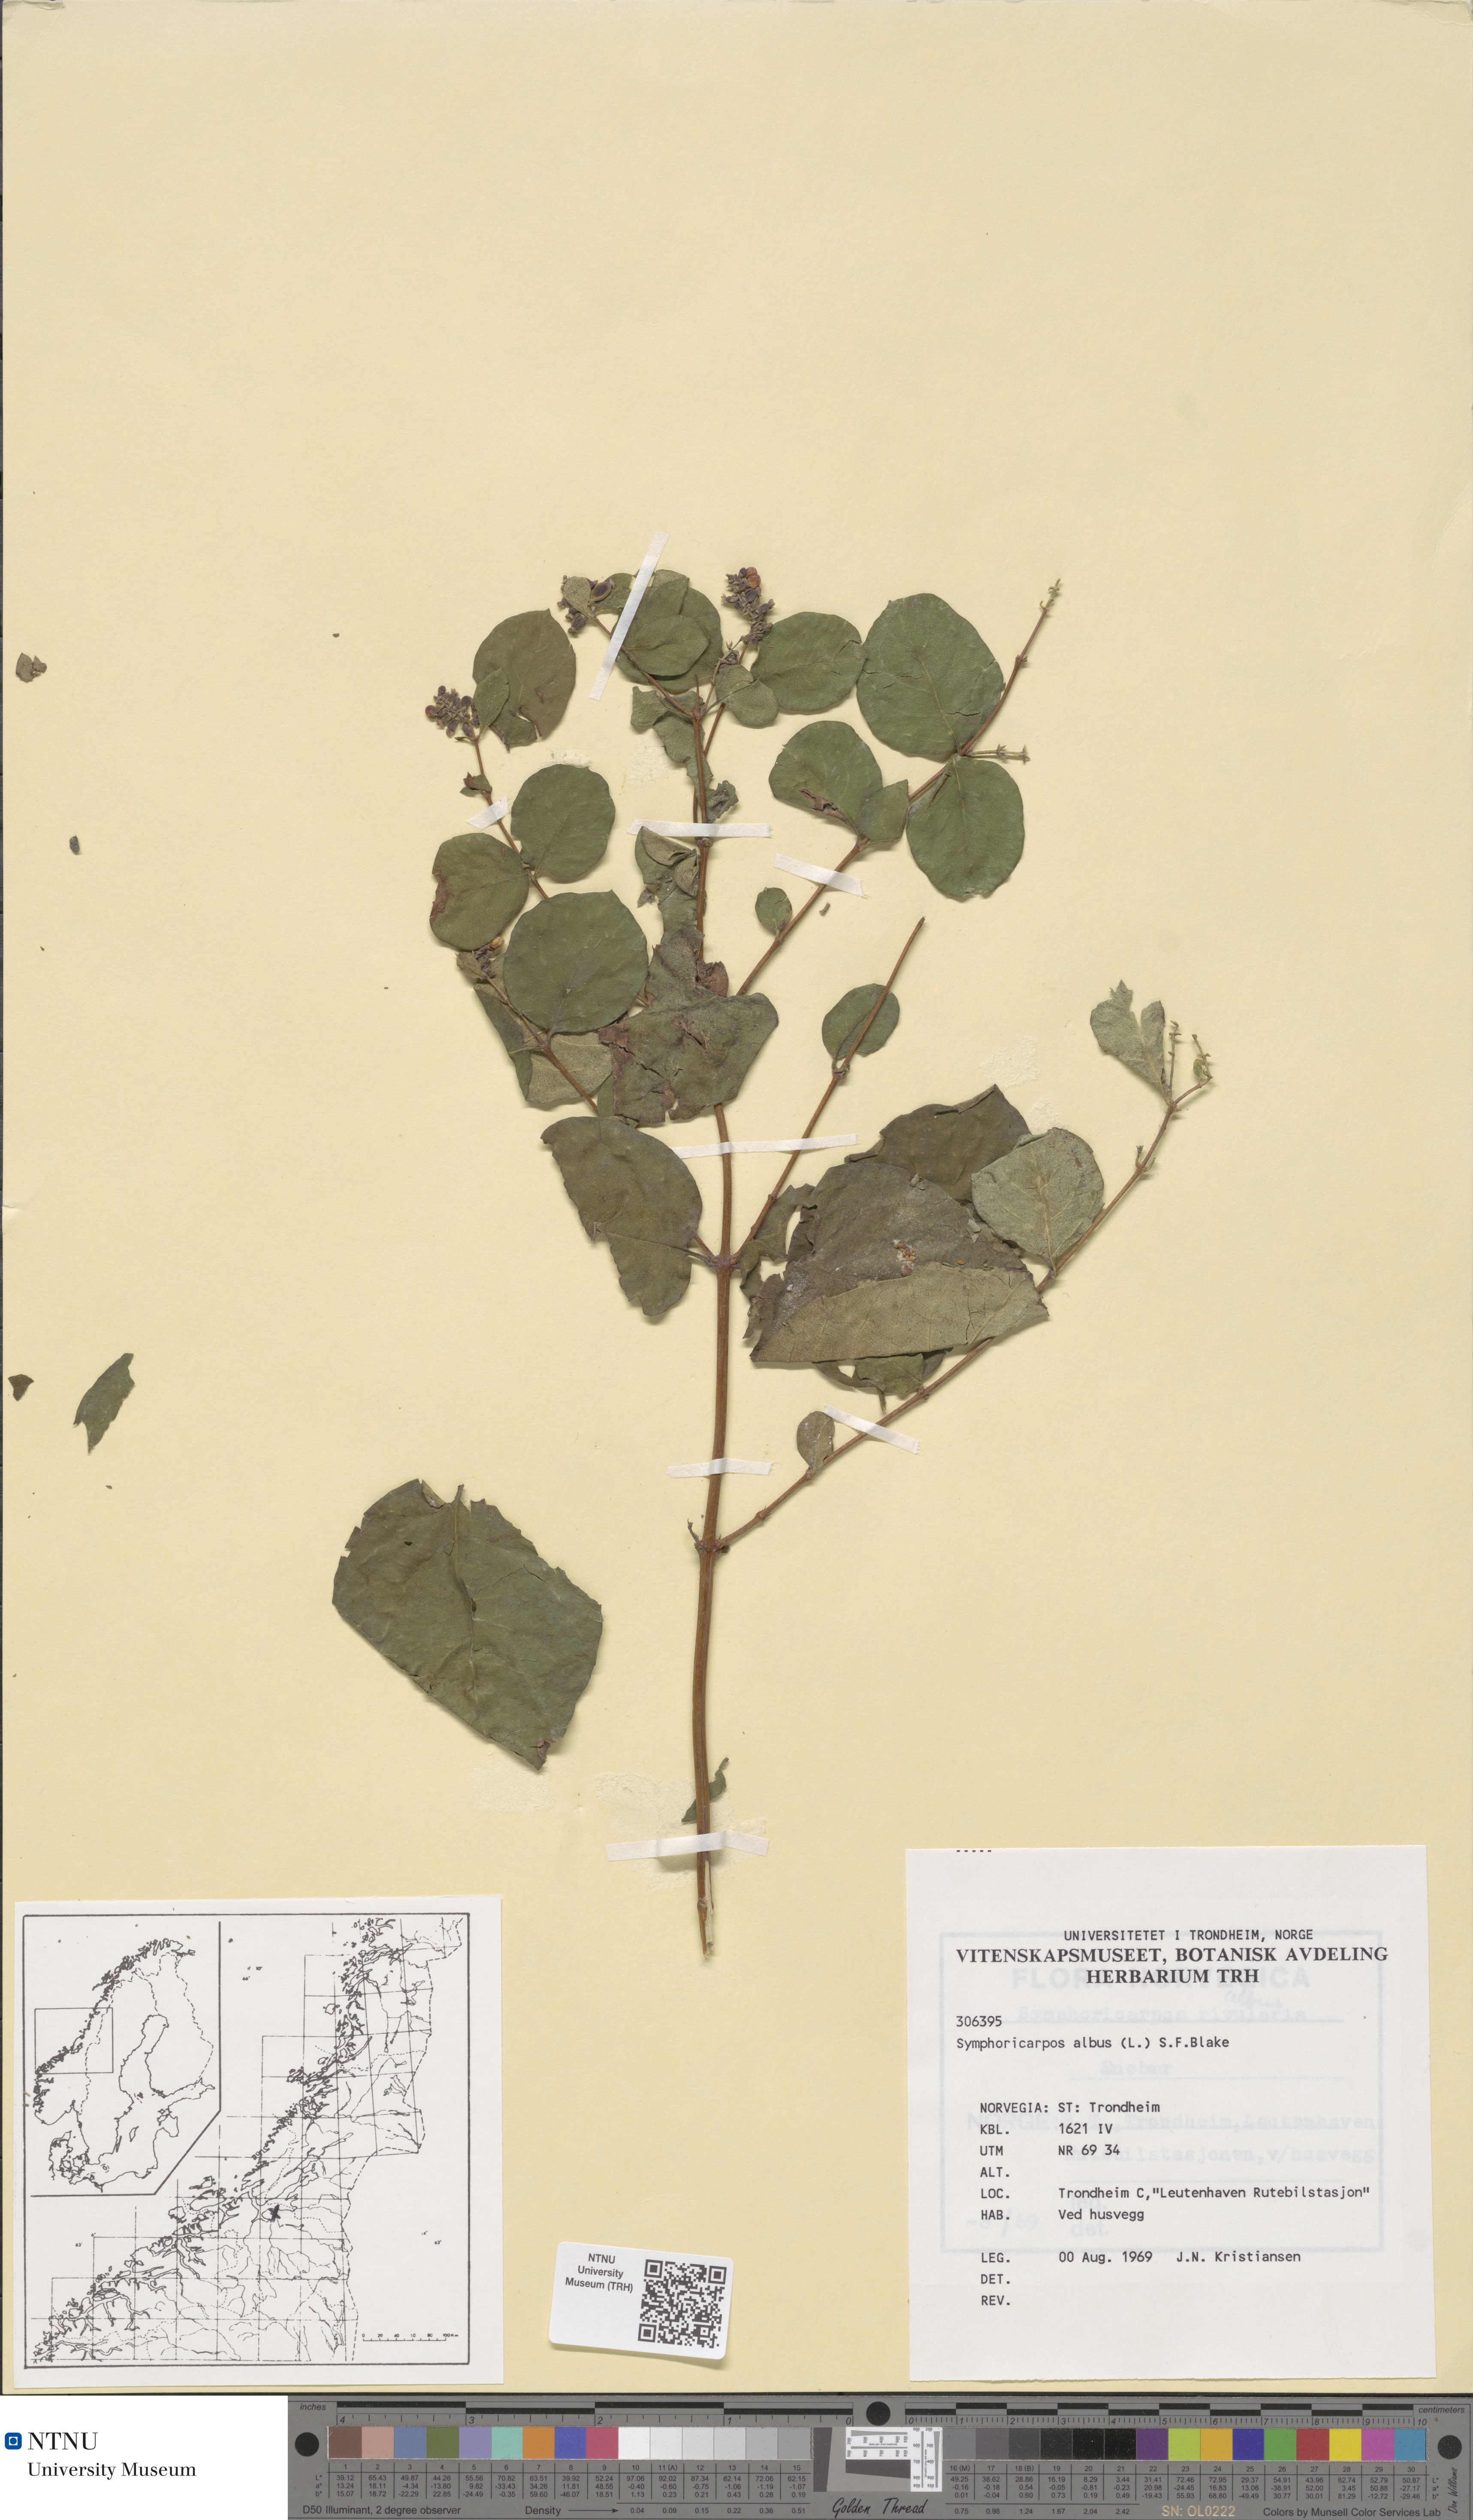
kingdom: Plantae
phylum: Tracheophyta
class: Magnoliopsida
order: Dipsacales
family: Caprifoliaceae
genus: Symphoricarpos
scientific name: Symphoricarpos albus
